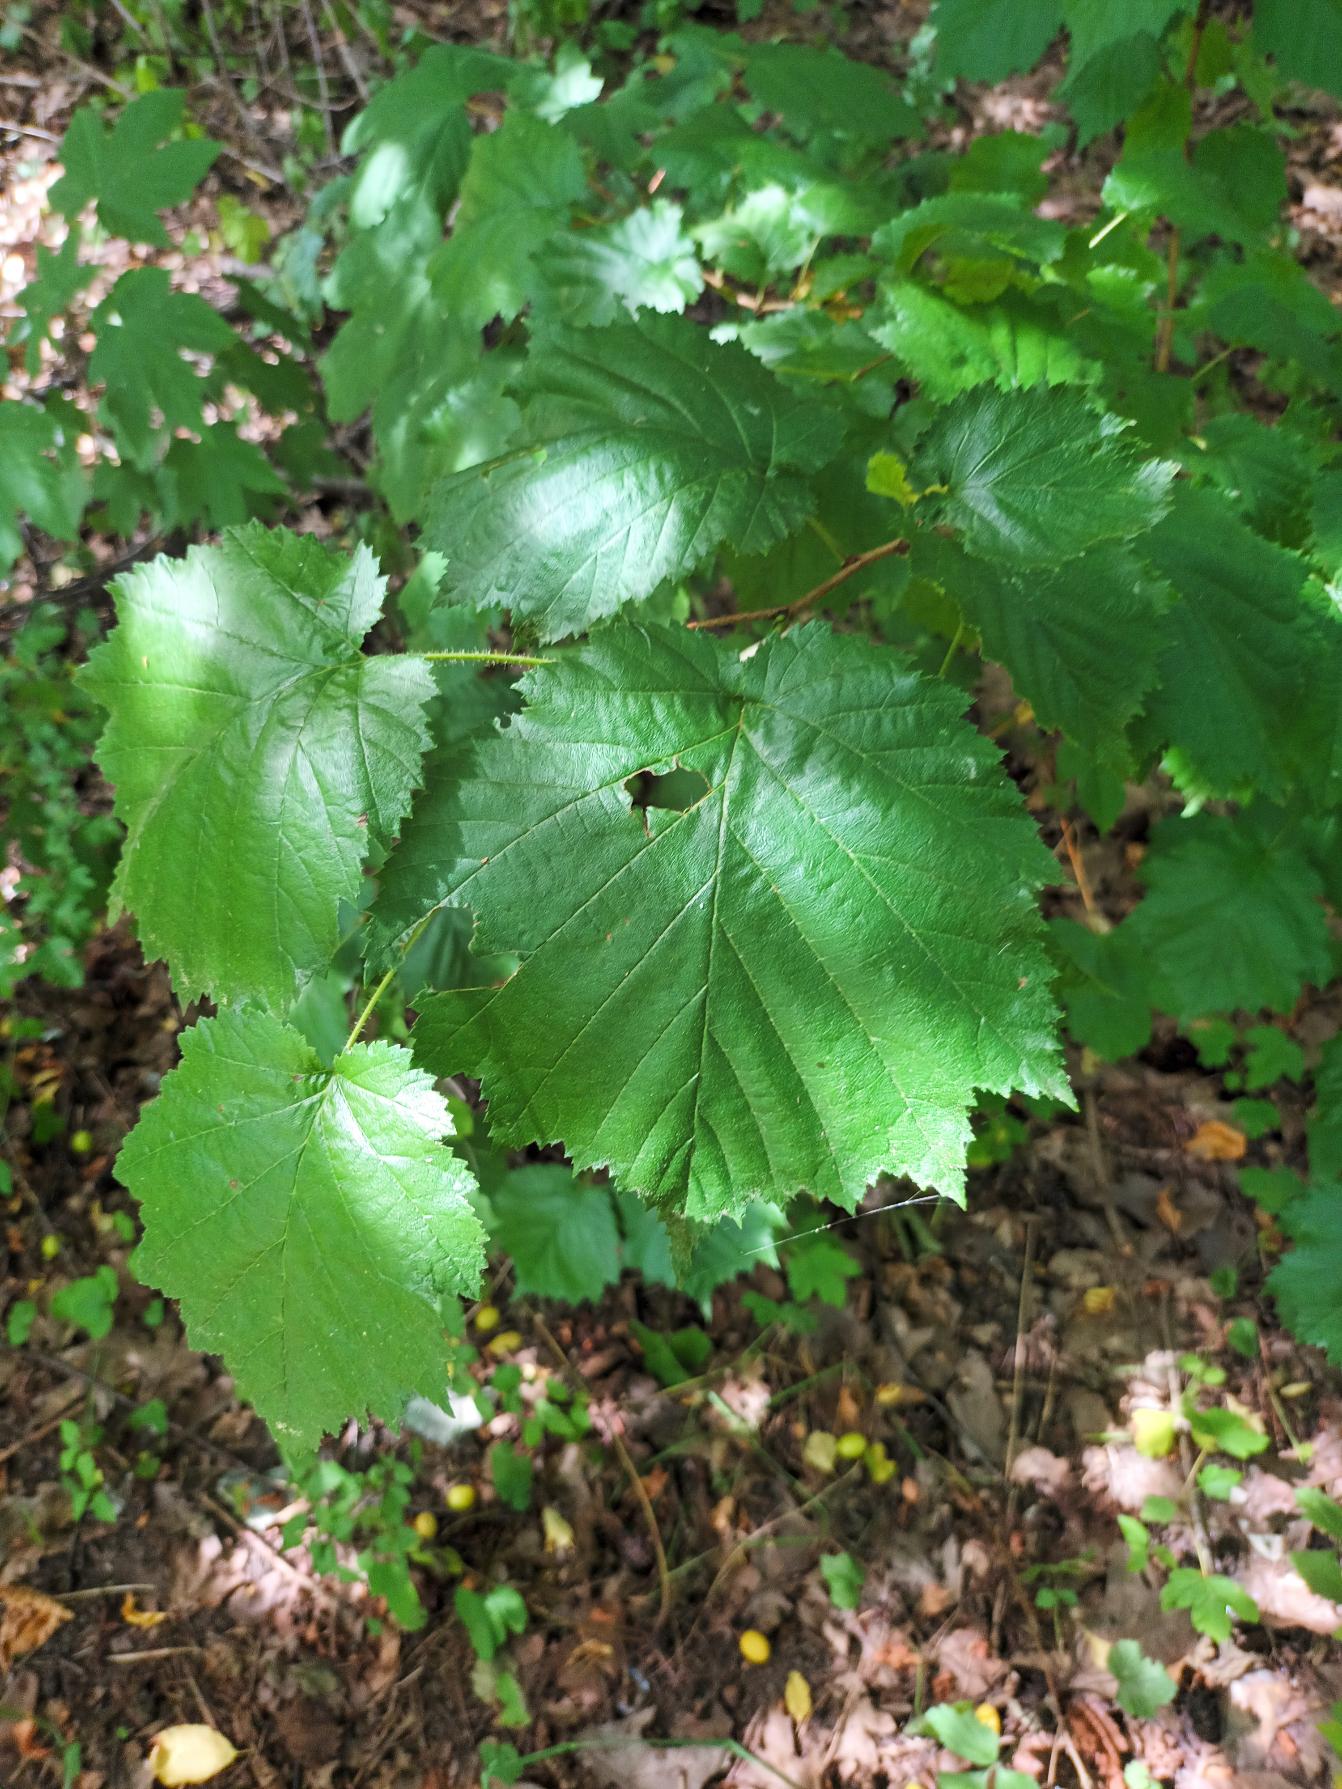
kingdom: Plantae
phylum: Tracheophyta
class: Magnoliopsida
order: Fagales
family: Betulaceae
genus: Corylus
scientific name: Corylus colurna
